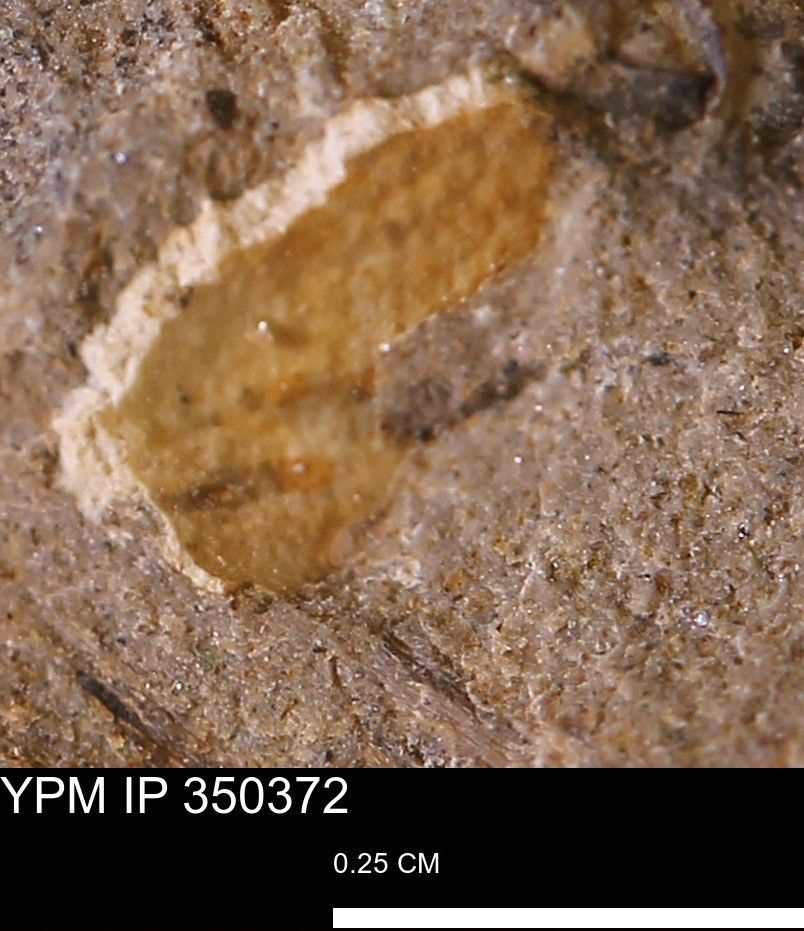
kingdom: Animalia
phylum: Mollusca
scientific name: Mollusca
